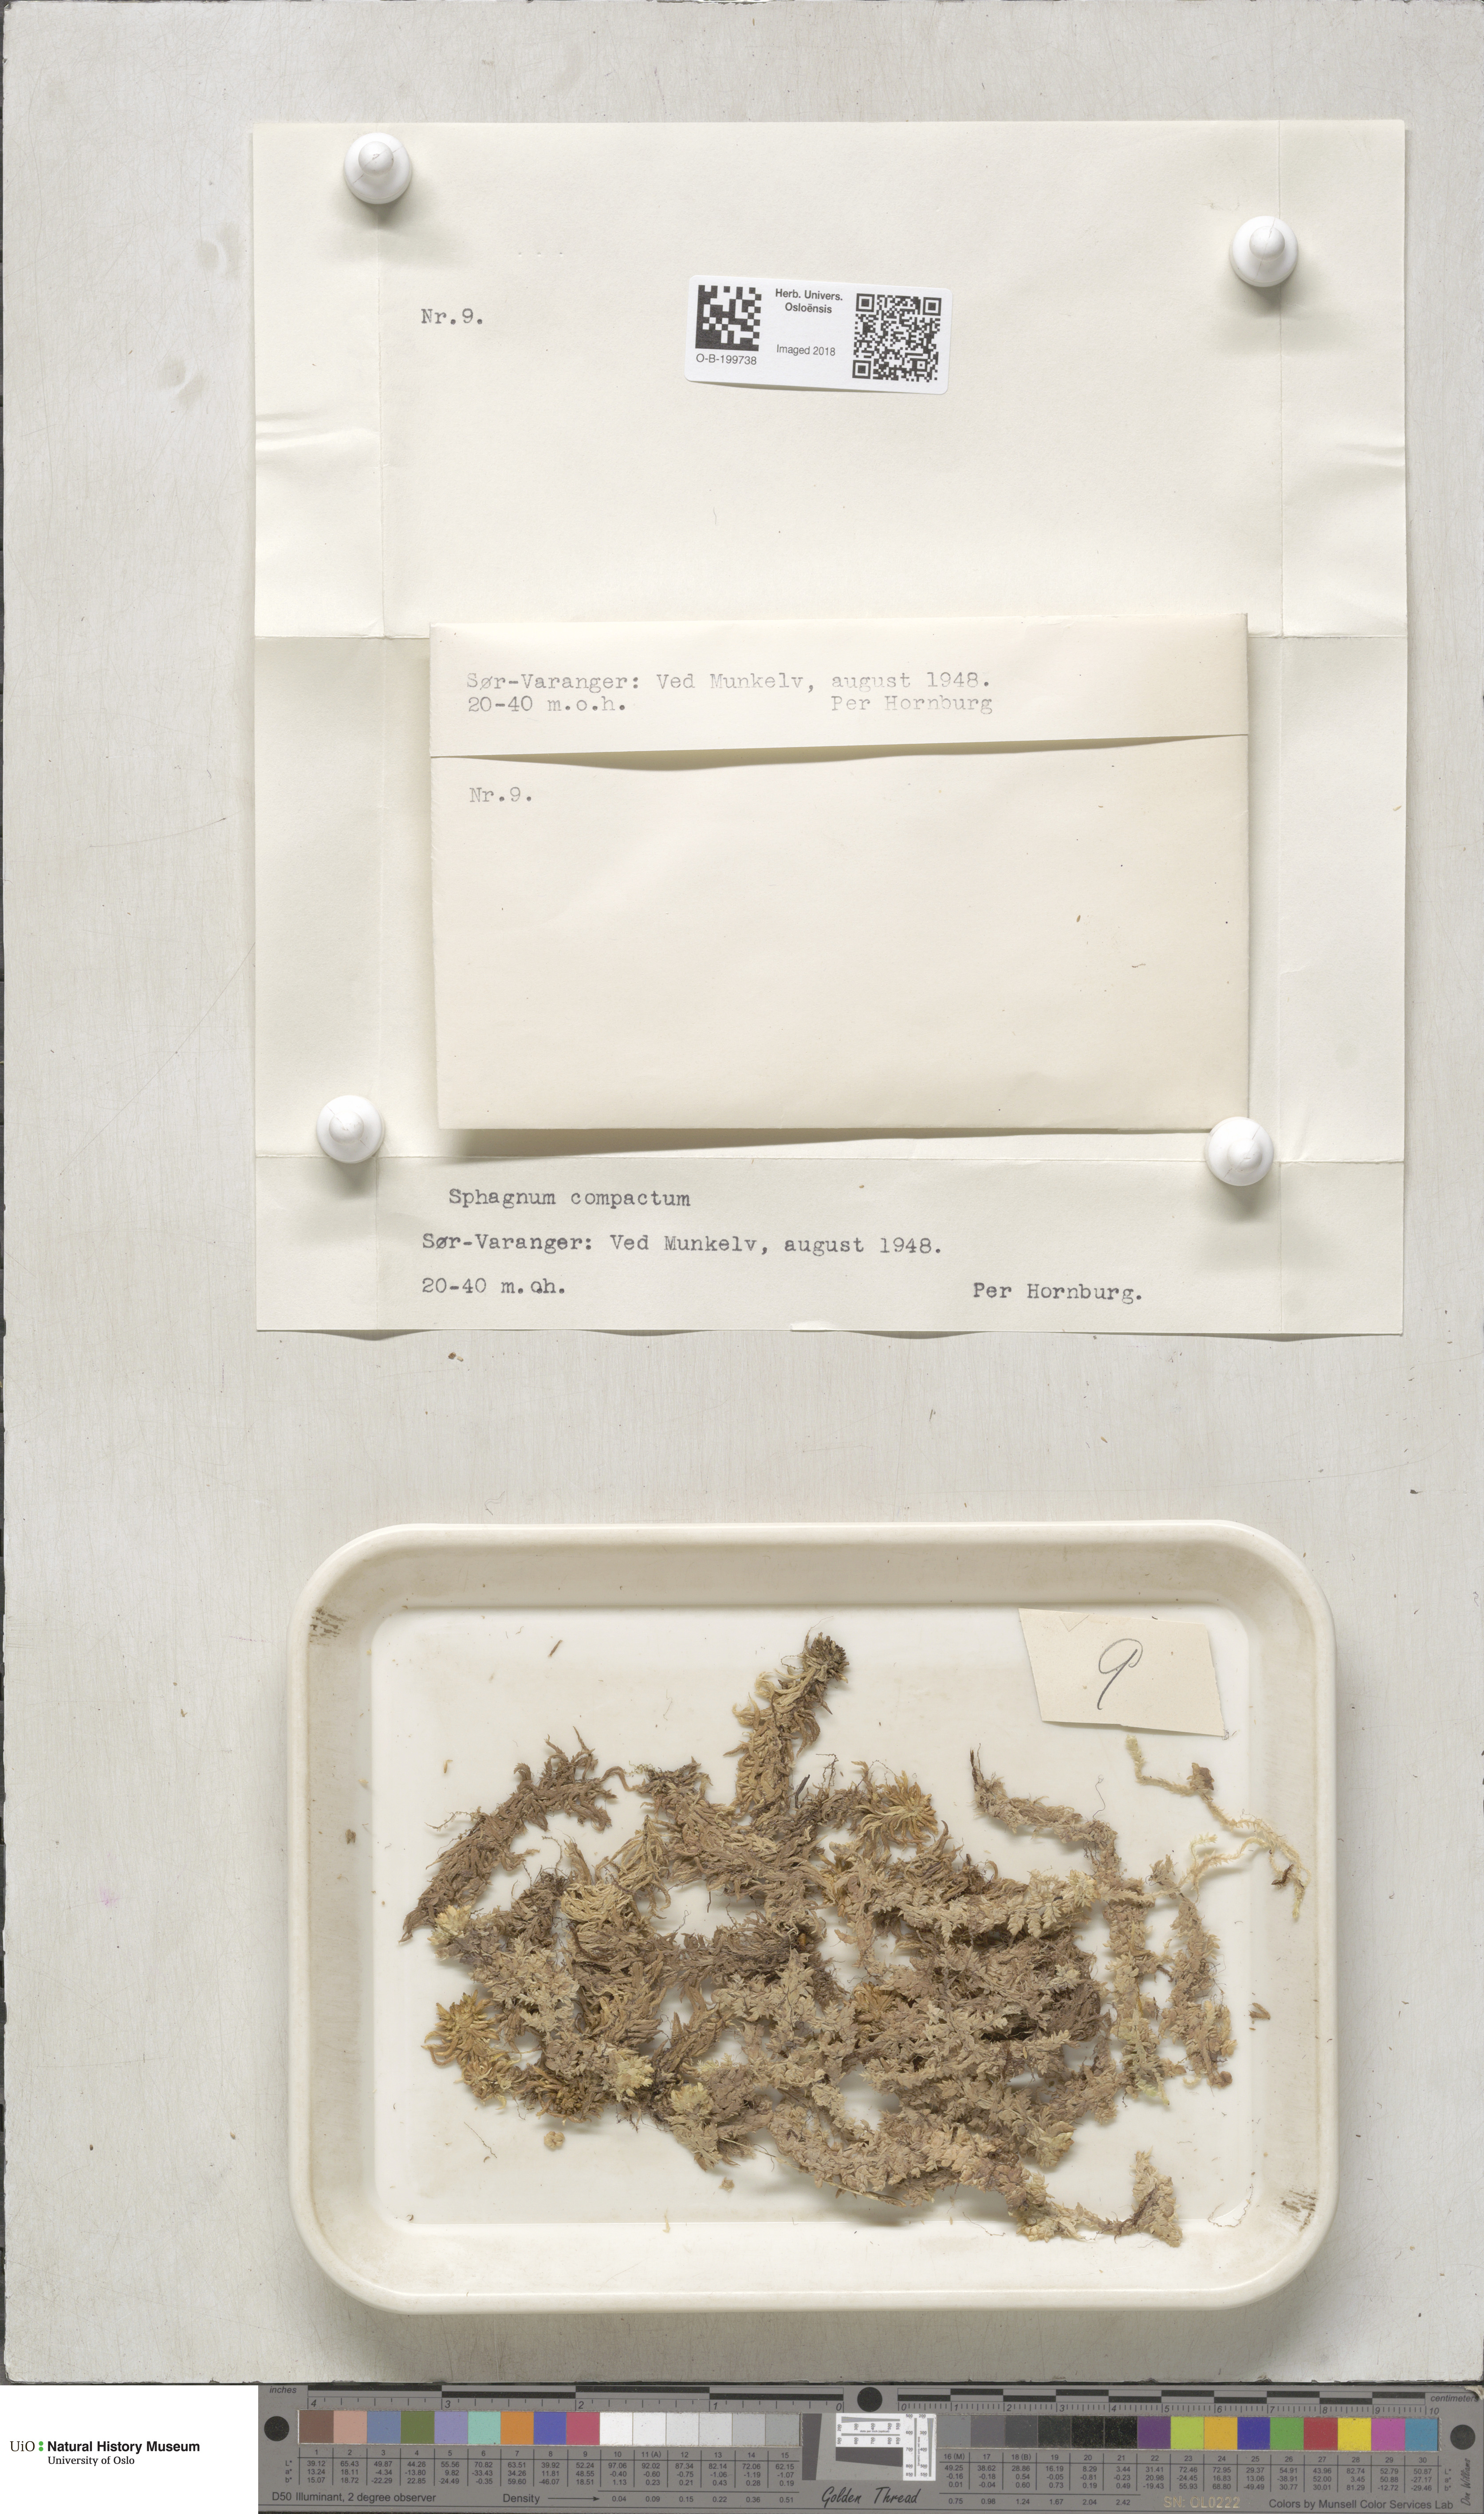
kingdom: Plantae
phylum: Bryophyta
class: Sphagnopsida
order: Sphagnales
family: Sphagnaceae
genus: Sphagnum
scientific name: Sphagnum compactum
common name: Compact peat moss
